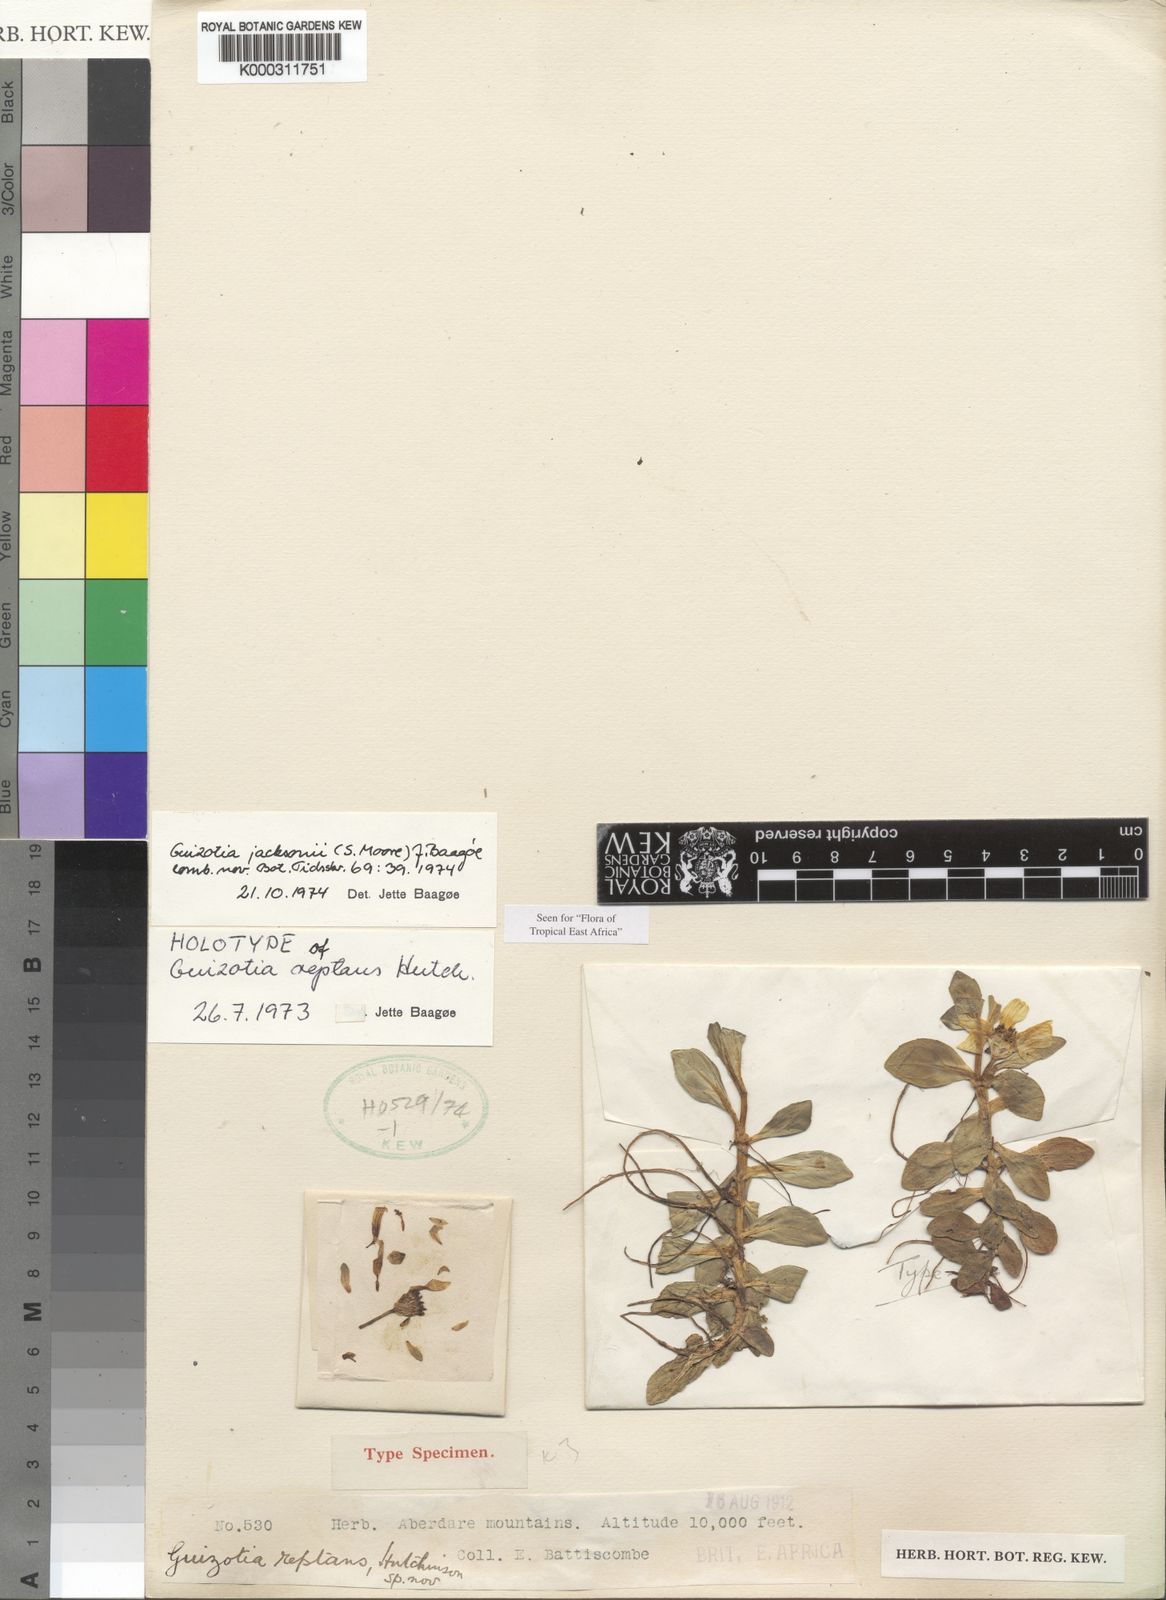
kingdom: Plantae
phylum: Tracheophyta
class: Magnoliopsida
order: Asterales
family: Asteraceae
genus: Guizotia
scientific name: Guizotia jacksonii
